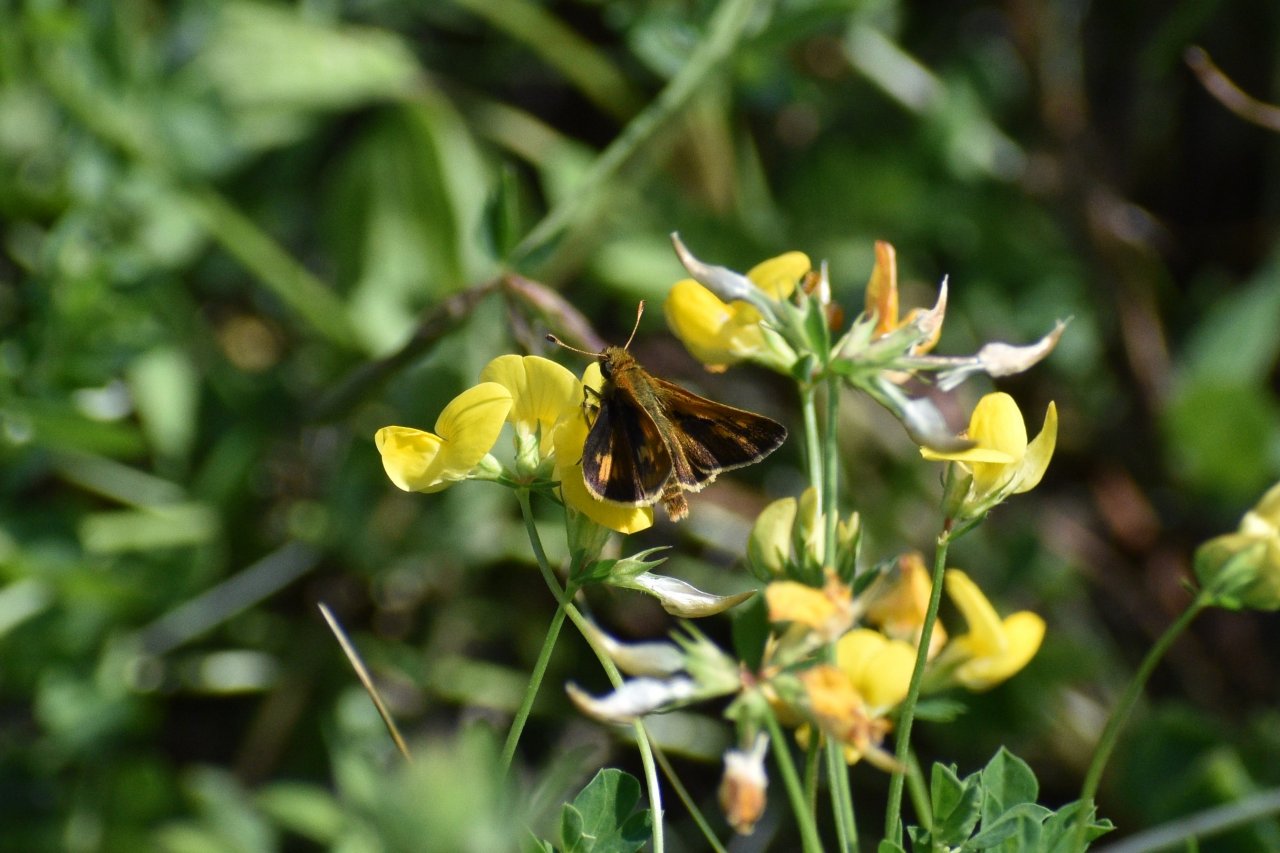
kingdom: Animalia
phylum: Arthropoda
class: Insecta
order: Lepidoptera
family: Hesperiidae
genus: Polites
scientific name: Polites coras
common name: Peck's Skipper
